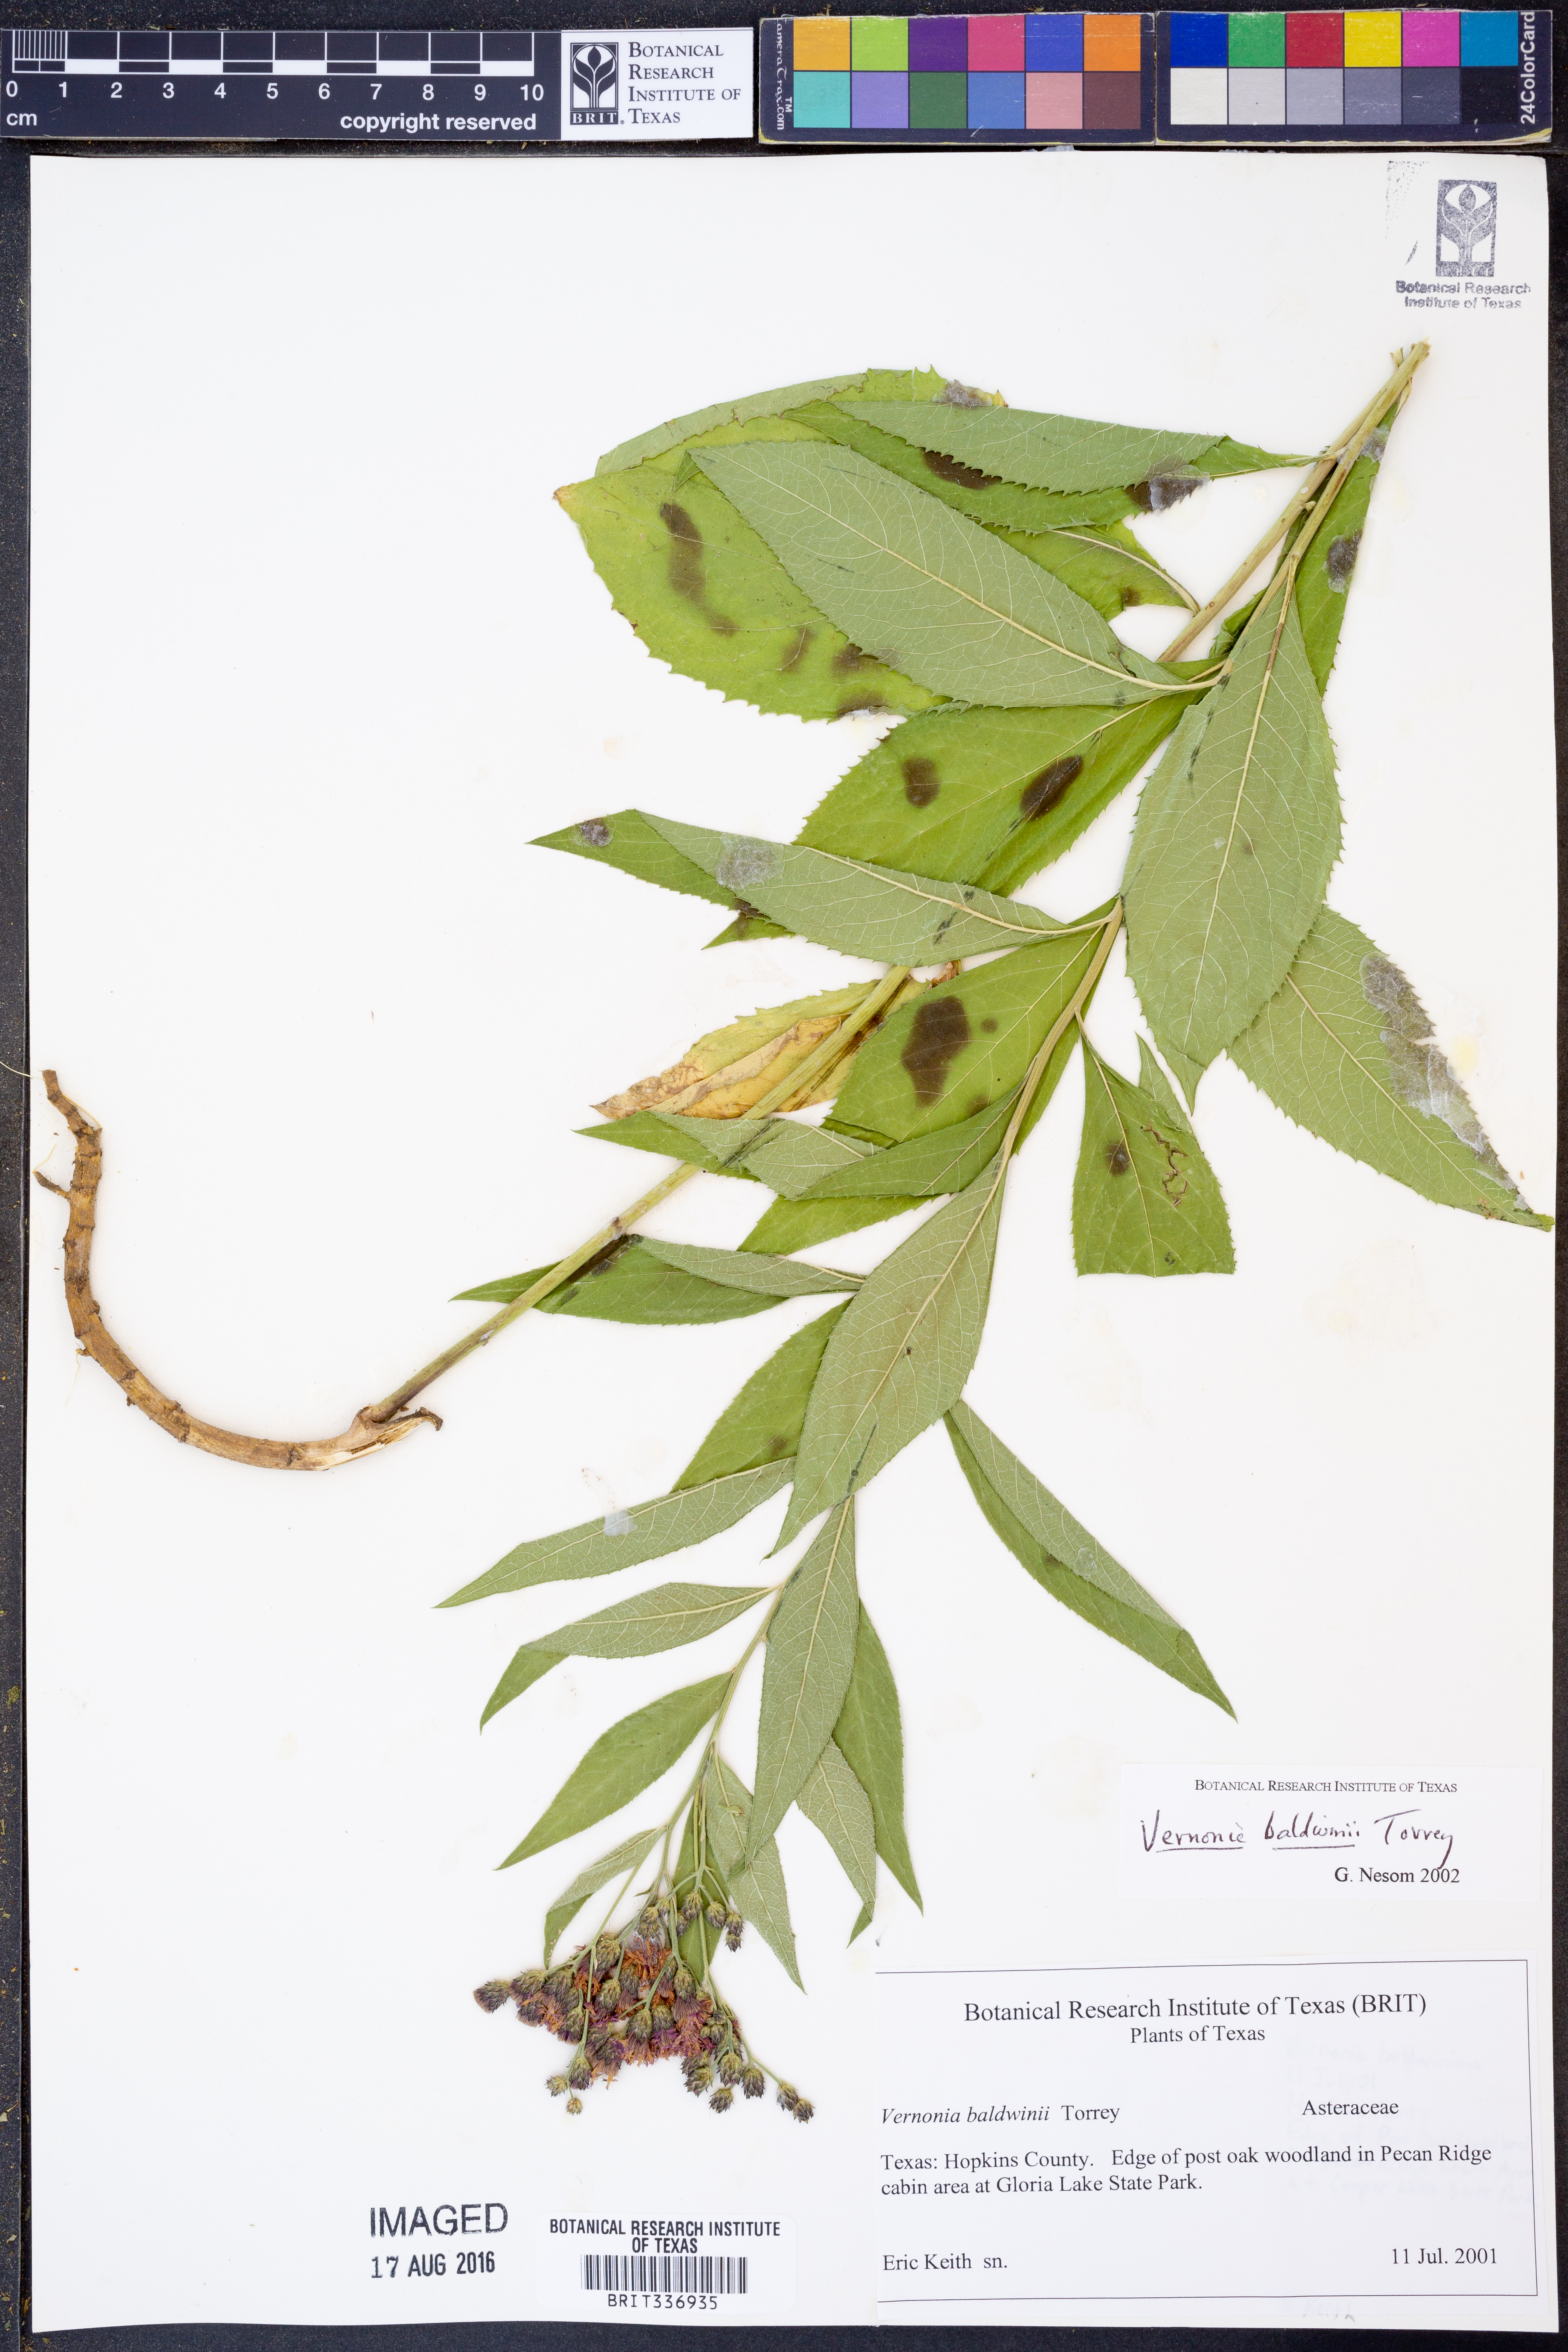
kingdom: Plantae
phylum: Tracheophyta
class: Magnoliopsida
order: Asterales
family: Asteraceae
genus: Vernonia
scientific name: Vernonia baldwinii
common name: Western ironweed
